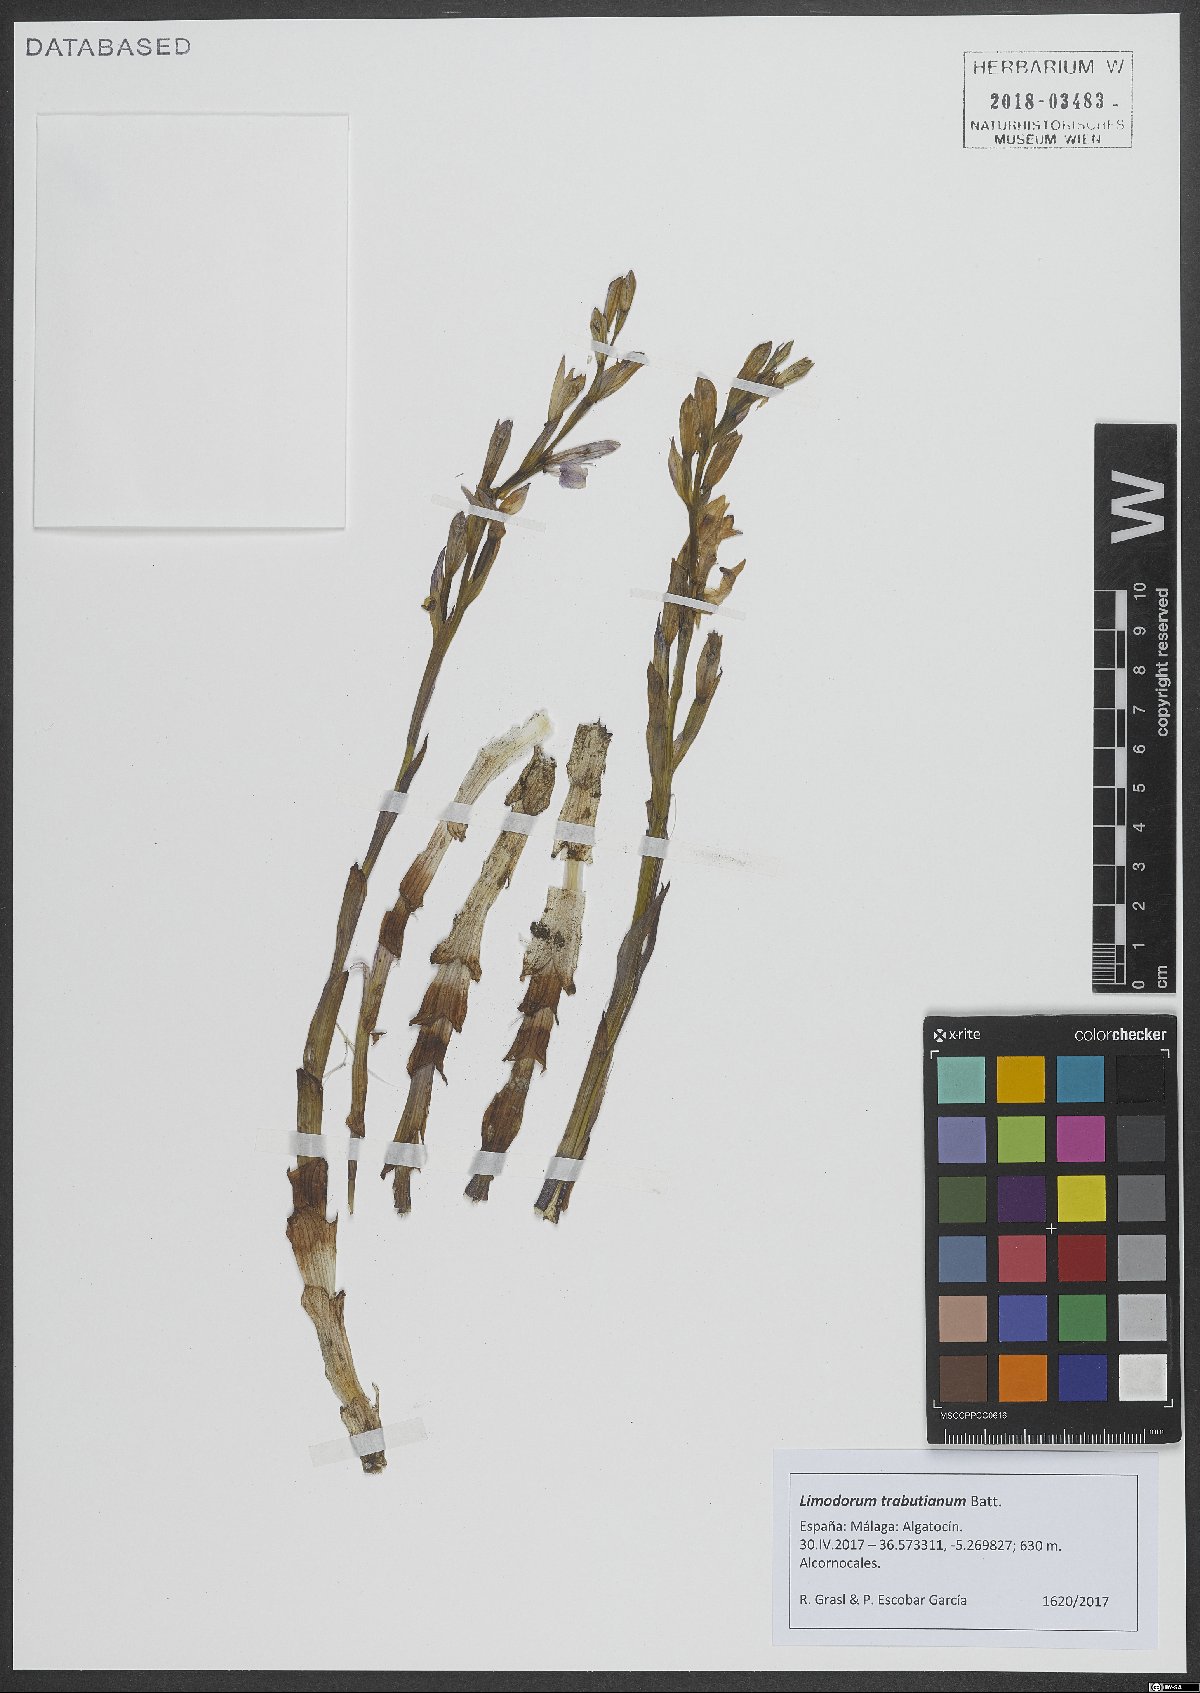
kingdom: Plantae
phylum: Tracheophyta
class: Liliopsida
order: Asparagales
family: Orchidaceae
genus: Limodorum
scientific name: Limodorum trabutianum
